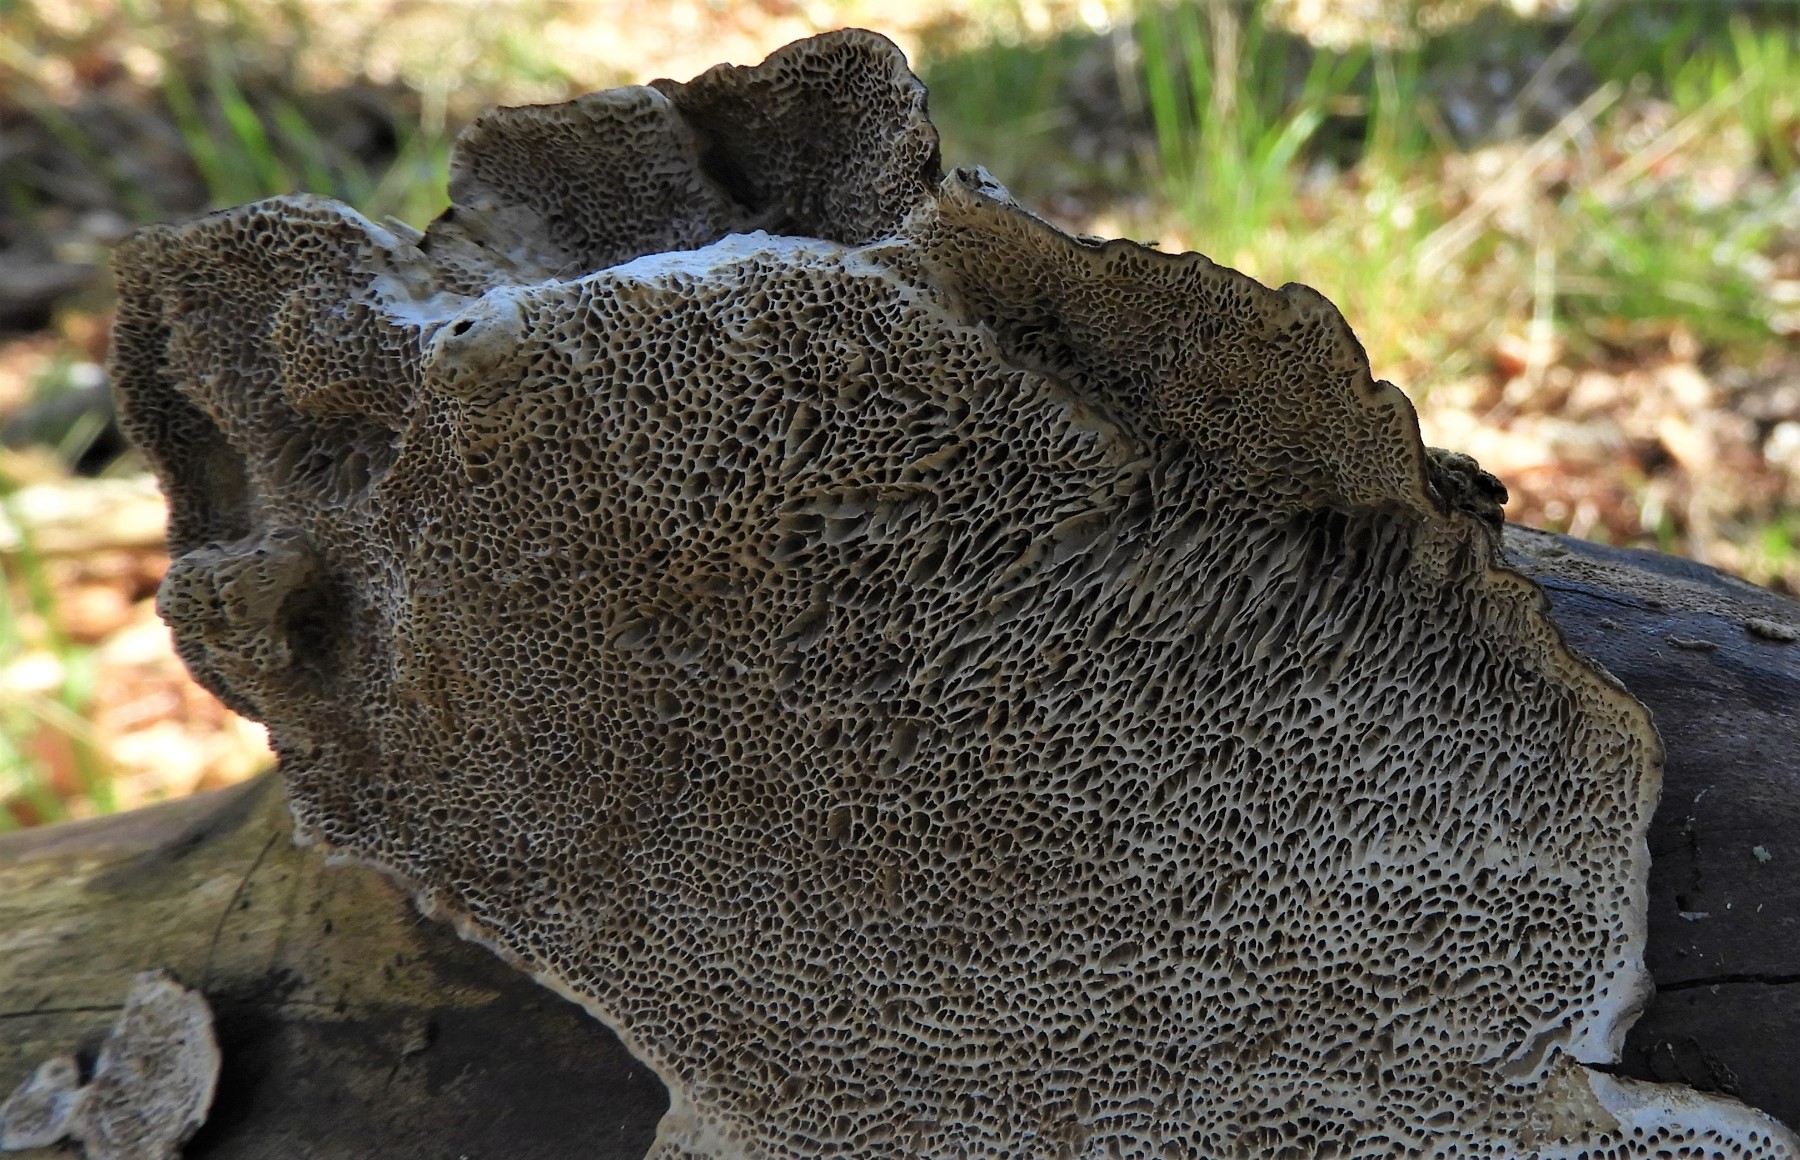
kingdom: Fungi
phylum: Basidiomycota
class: Agaricomycetes
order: Polyporales
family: Polyporaceae
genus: Podofomes
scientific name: Podofomes mollis
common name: blød begporesvamp
